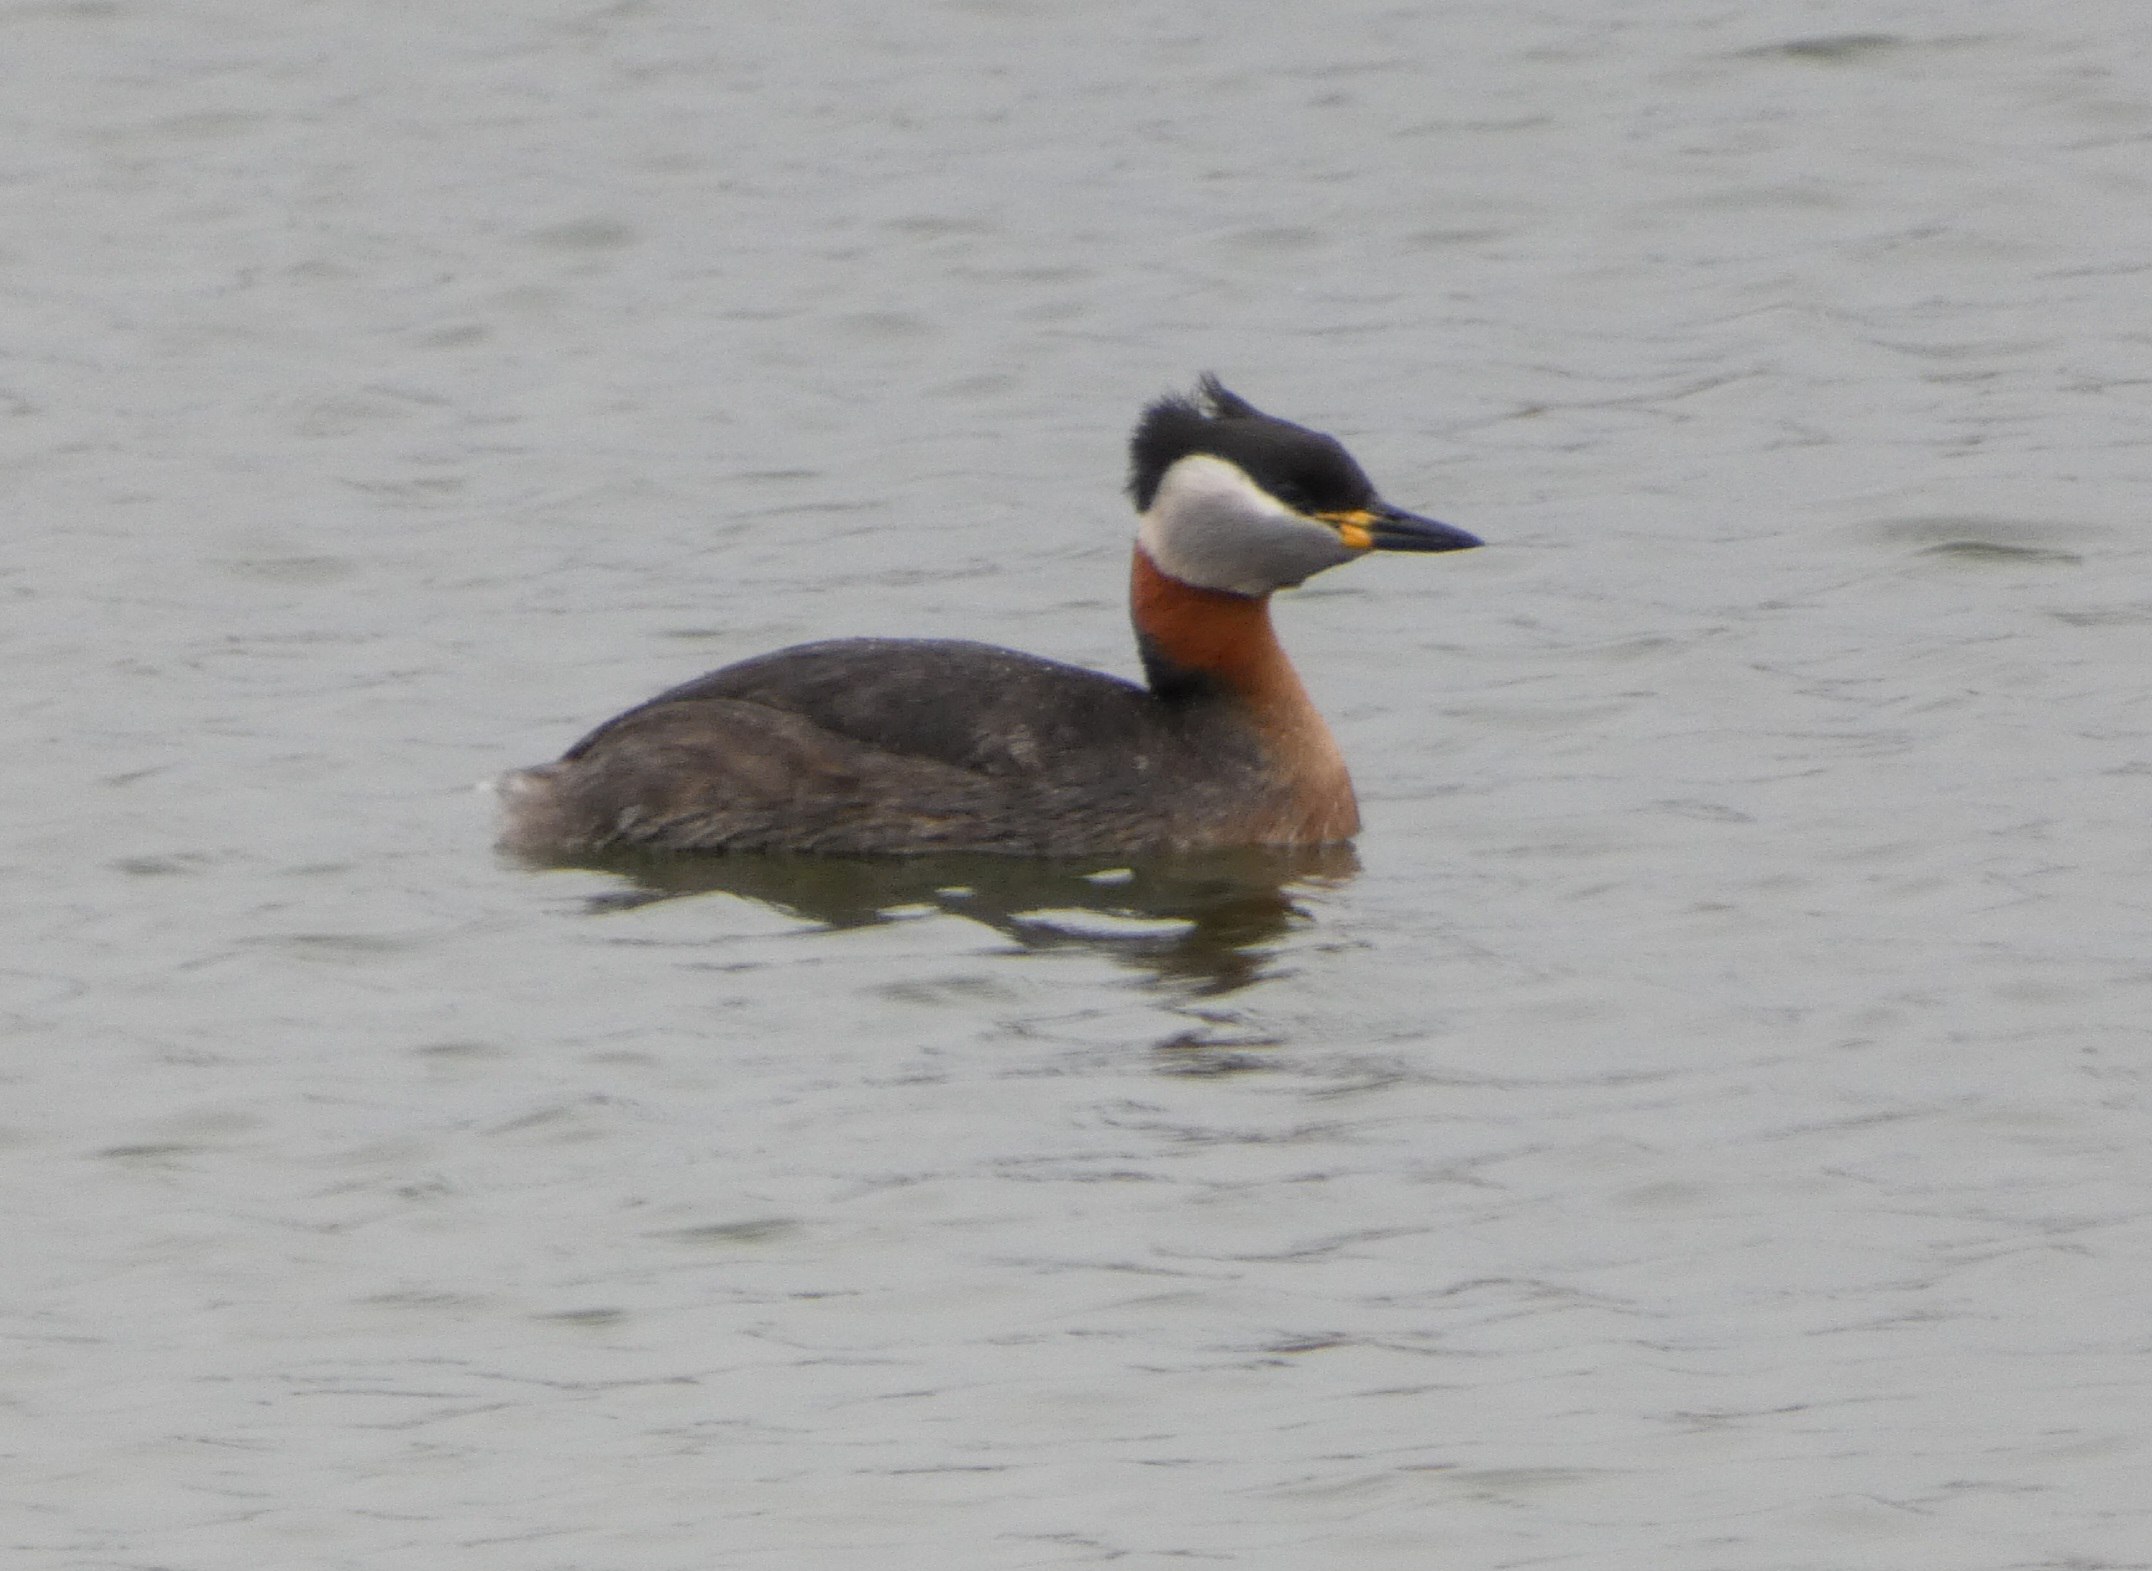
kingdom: Animalia
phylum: Chordata
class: Aves
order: Podicipediformes
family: Podicipedidae
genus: Podiceps
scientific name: Podiceps grisegena
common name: Gråstrubet lappedykker
